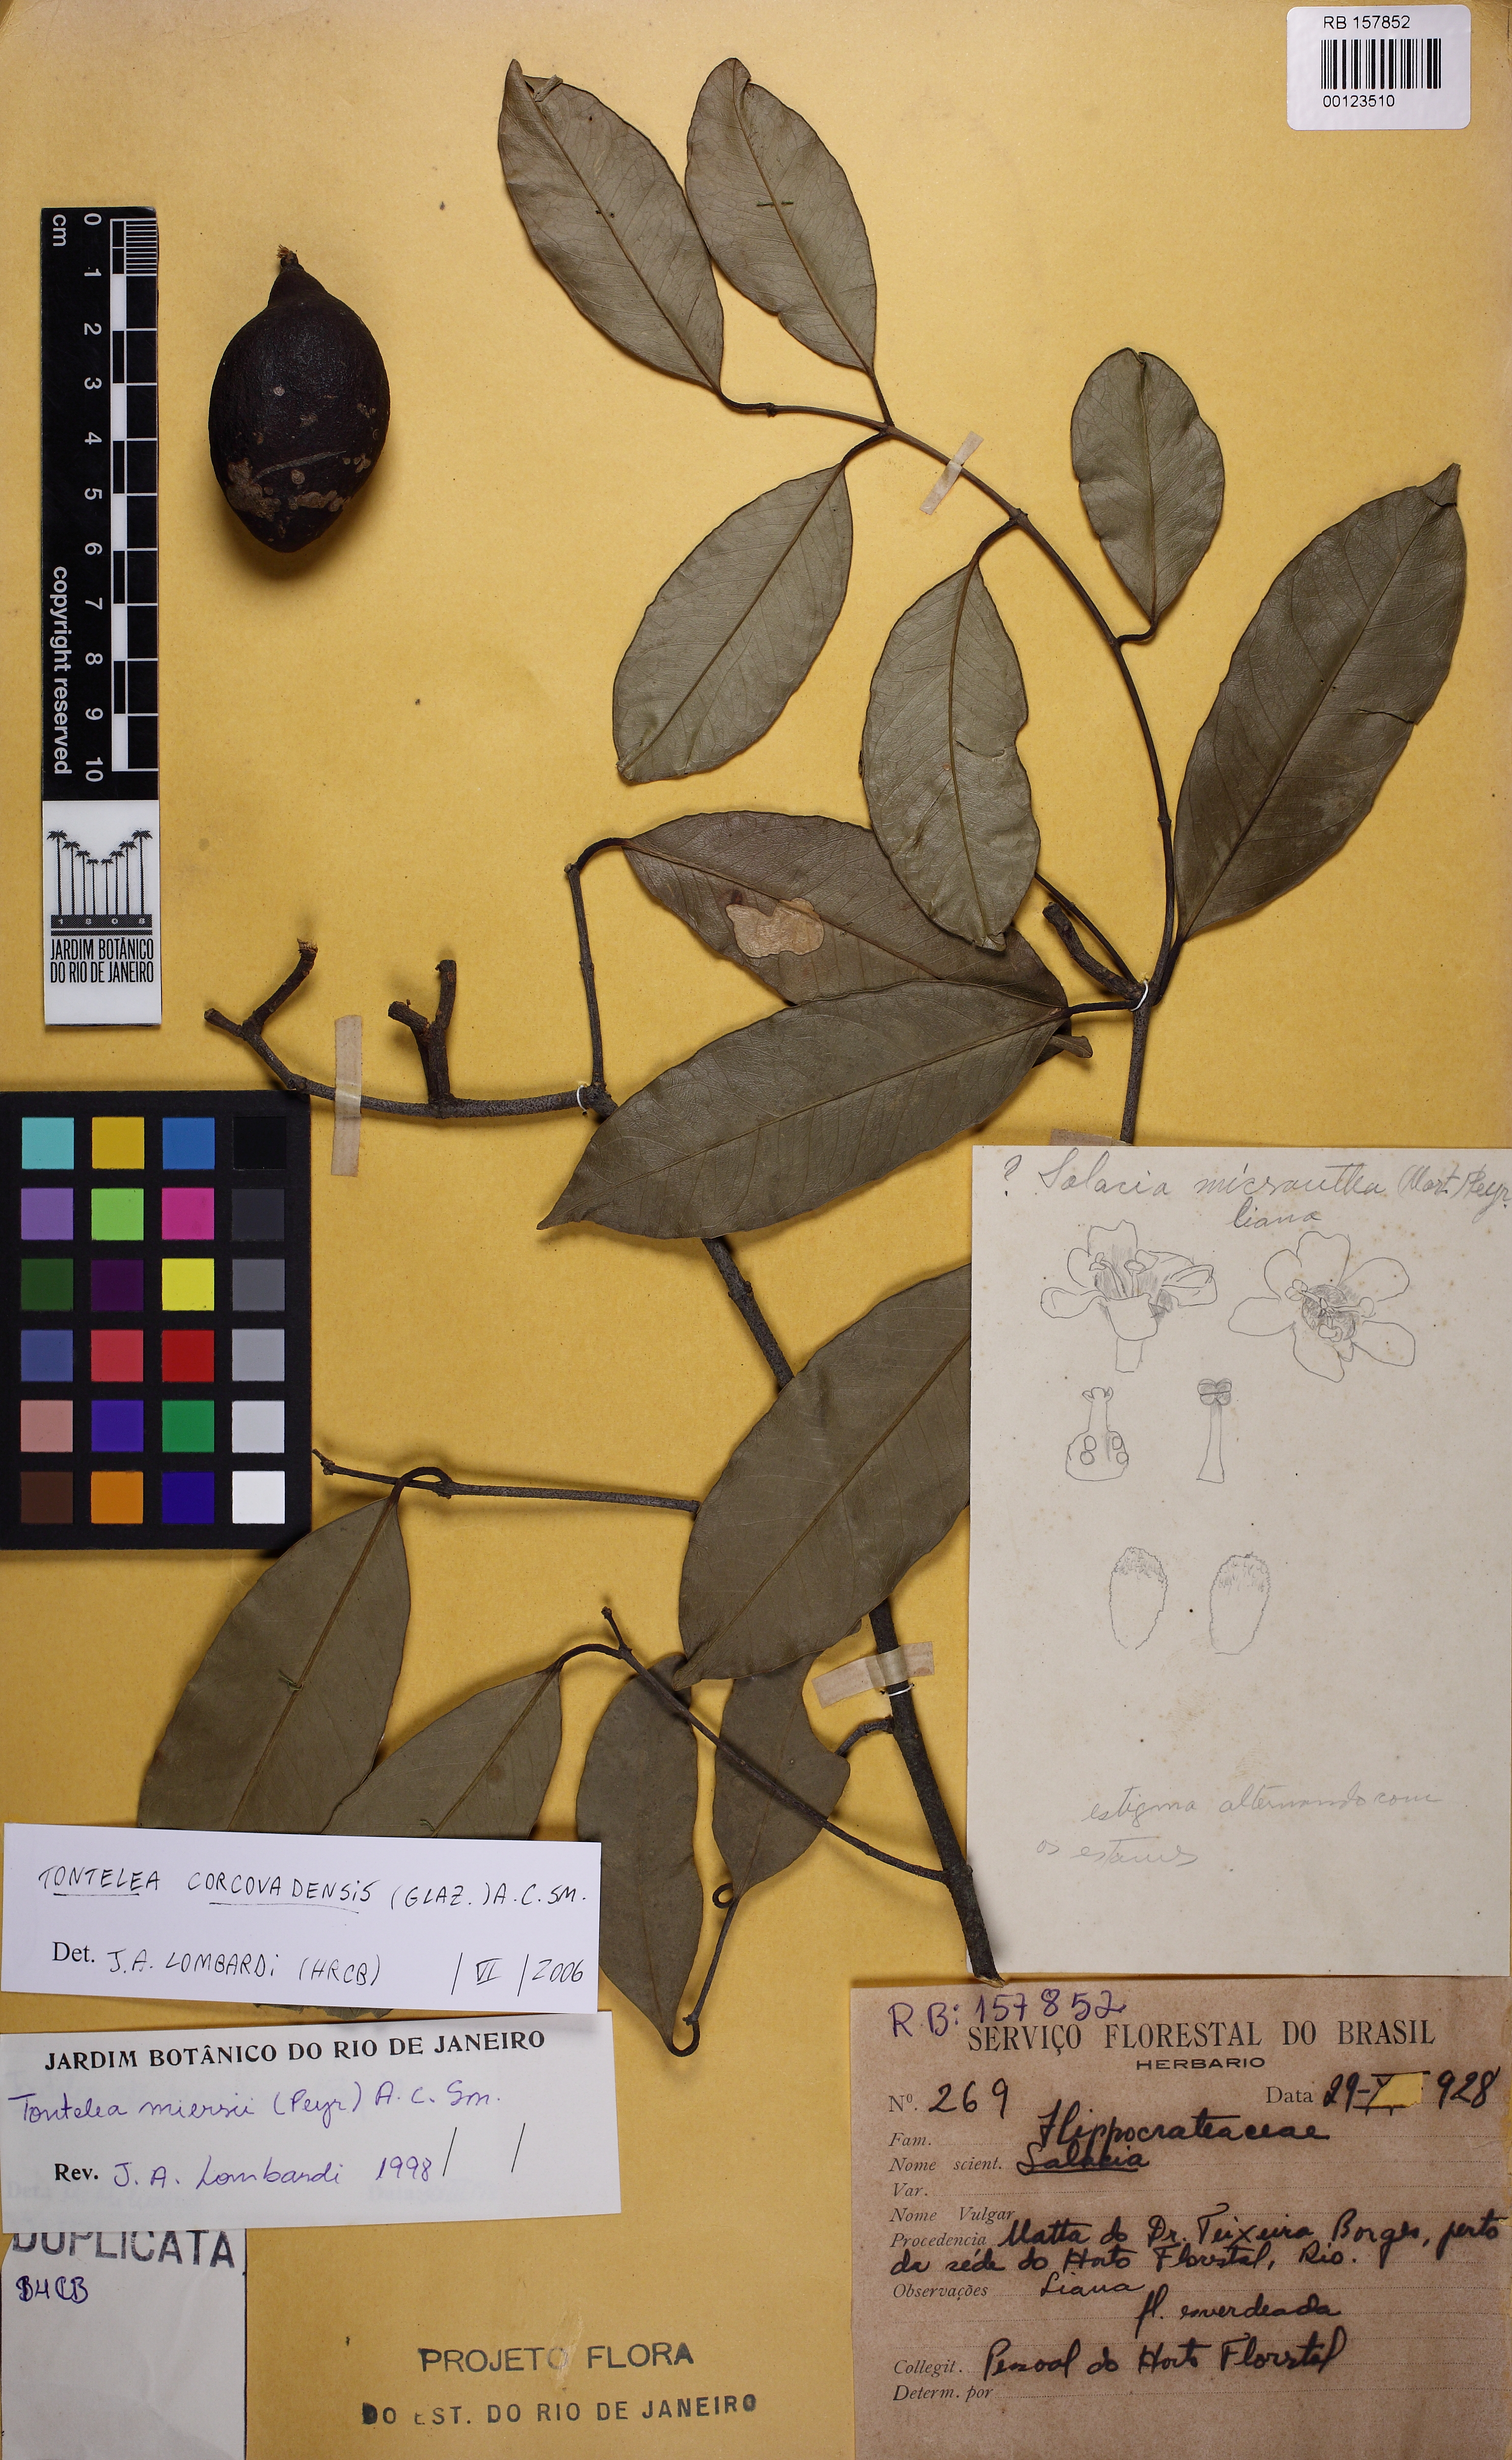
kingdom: Plantae
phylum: Tracheophyta
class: Magnoliopsida
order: Celastrales
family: Celastraceae
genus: Tontelea
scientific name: Tontelea corcovadensis
